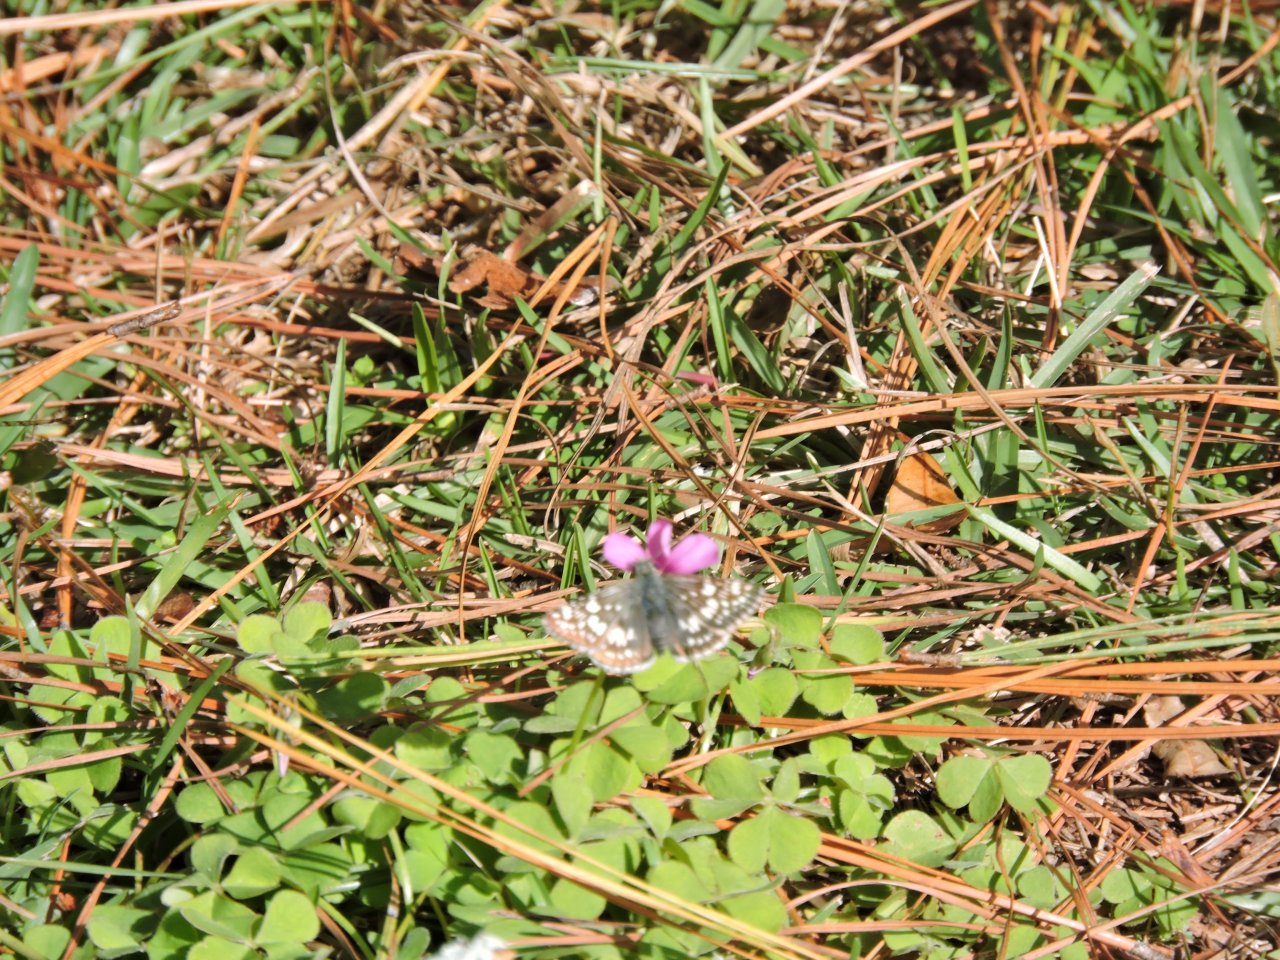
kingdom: Animalia
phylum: Arthropoda
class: Insecta
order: Lepidoptera
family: Hesperiidae
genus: Pyrgus
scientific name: Pyrgus
